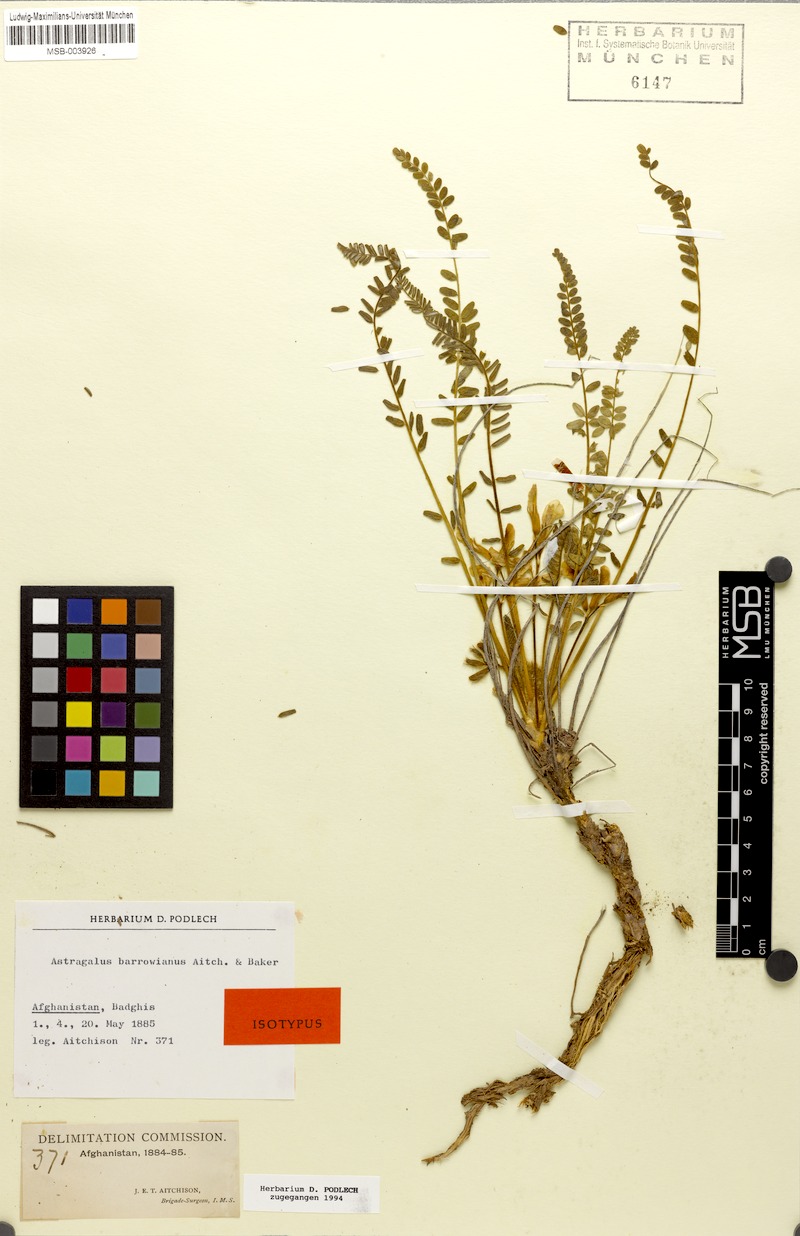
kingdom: Plantae
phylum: Tracheophyta
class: Magnoliopsida
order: Fabales
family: Fabaceae
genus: Astragalus
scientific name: Astragalus citrinus
